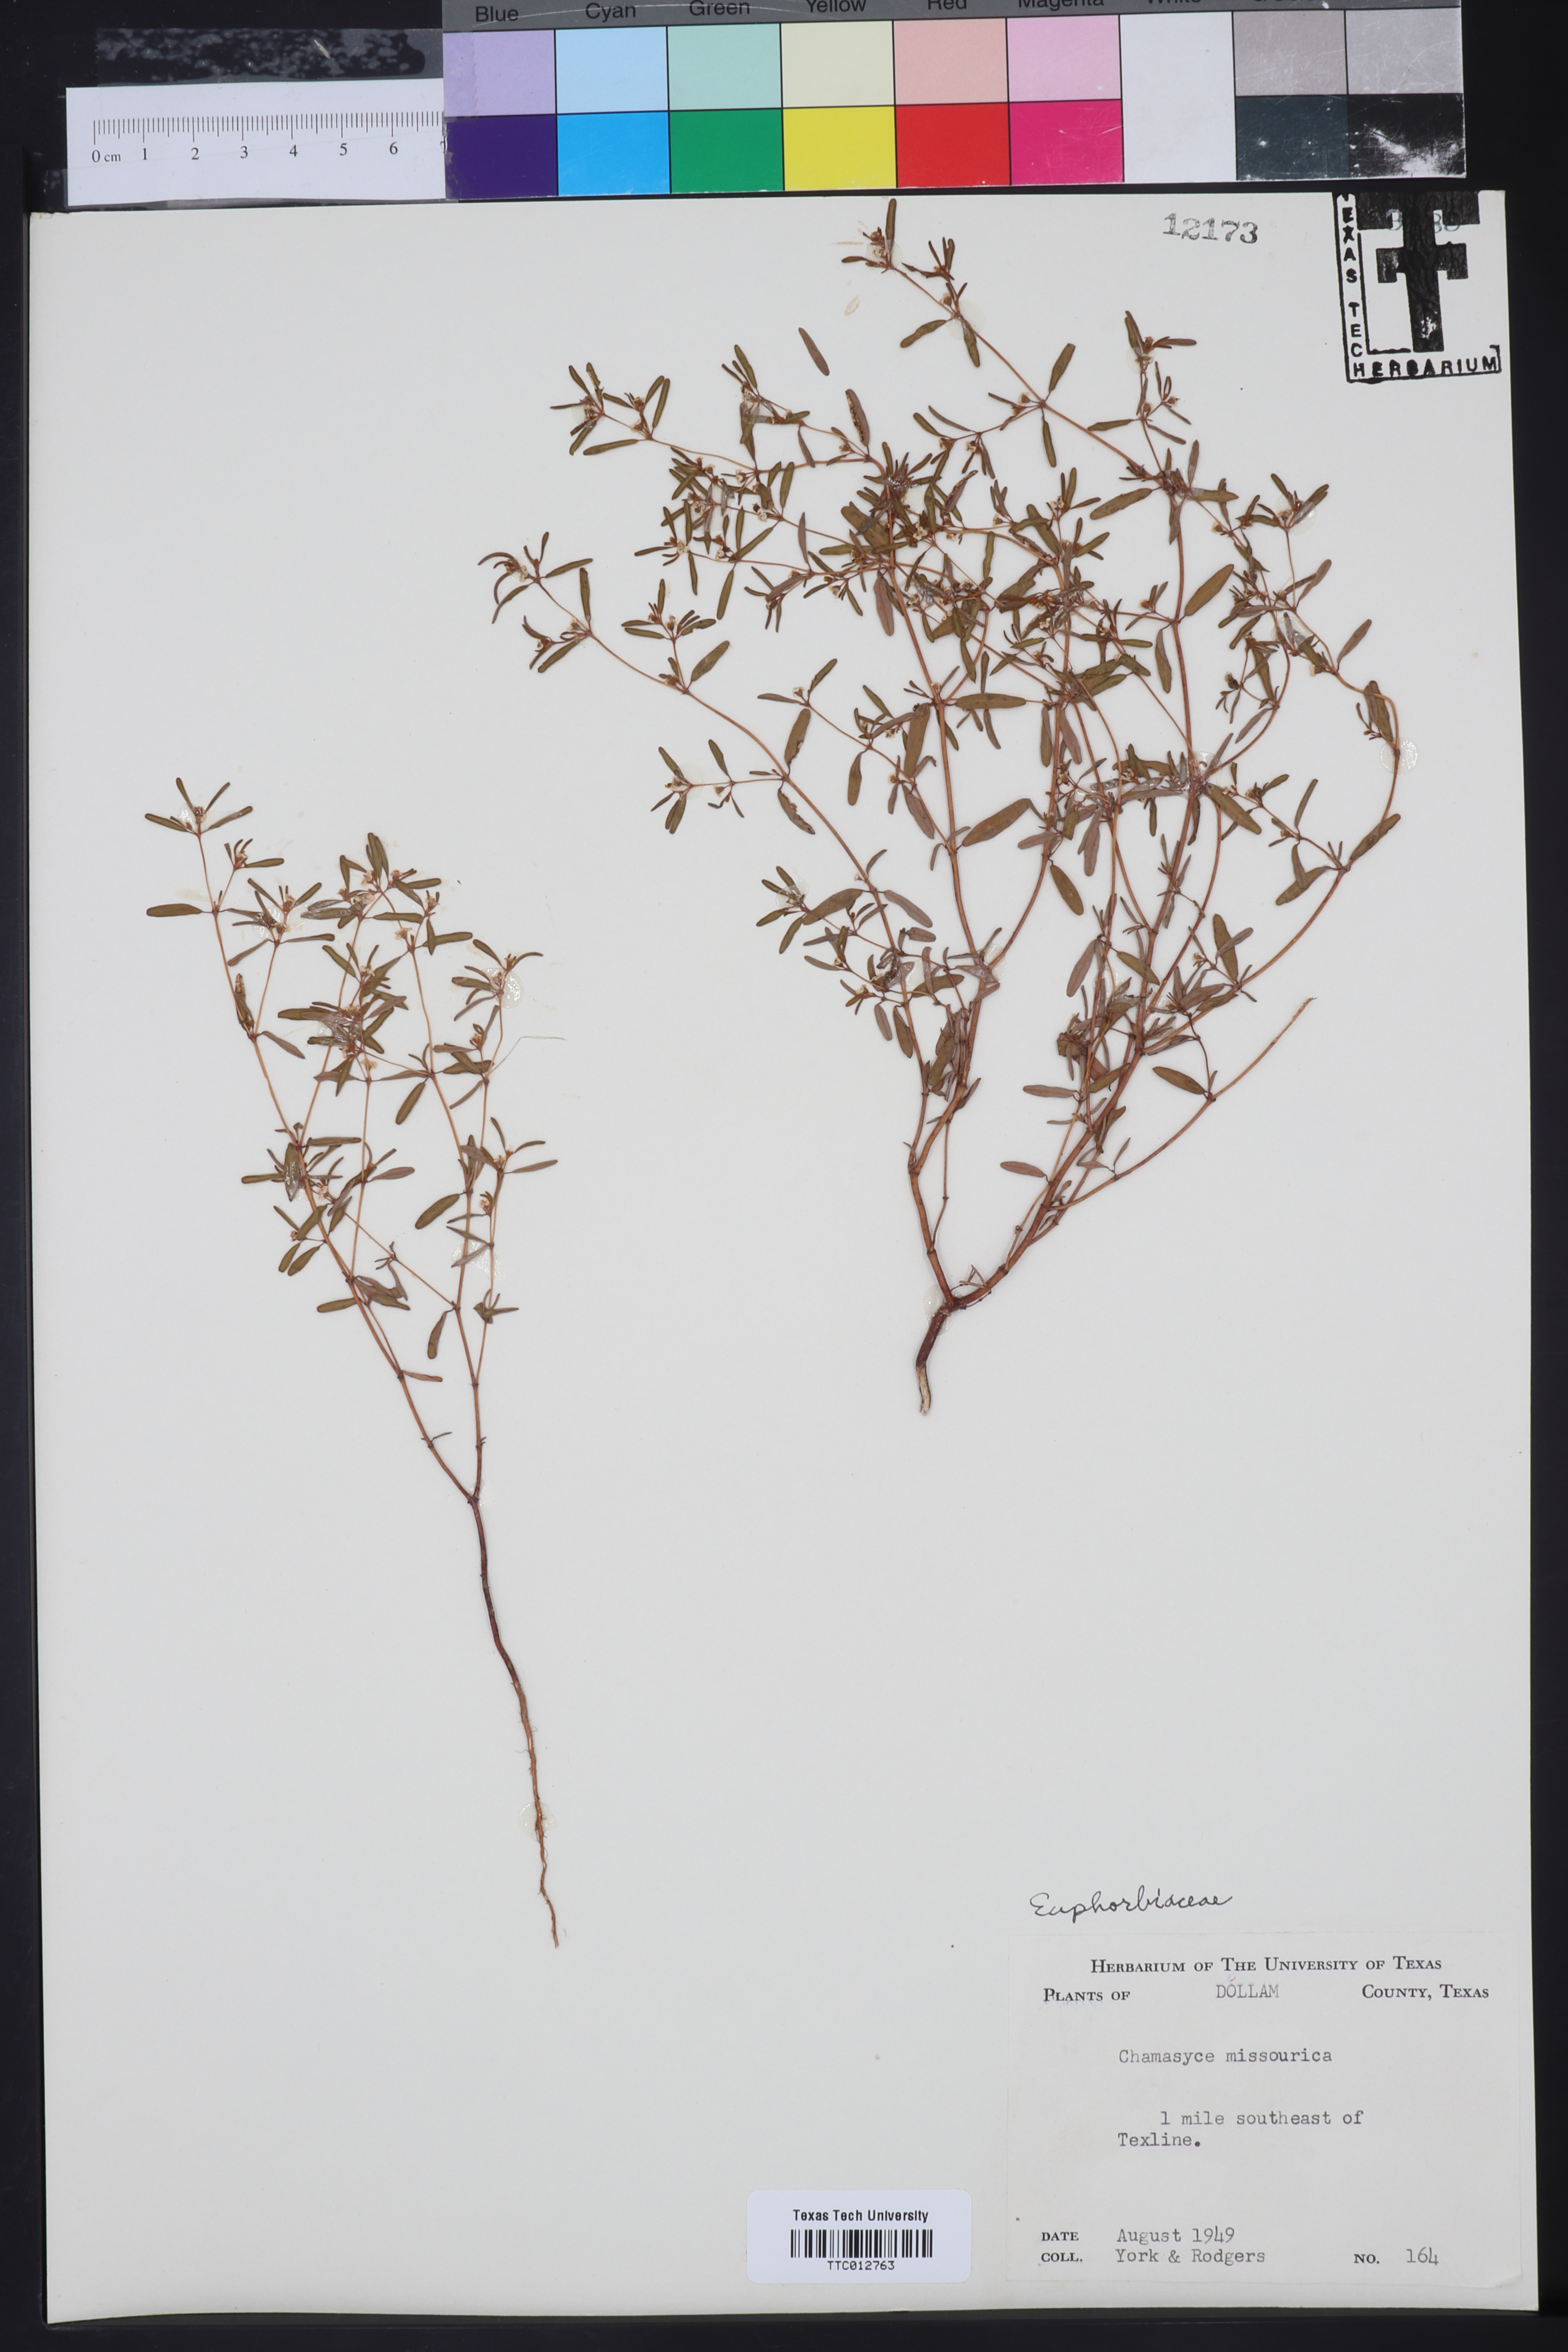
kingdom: Plantae
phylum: Tracheophyta
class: Magnoliopsida
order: Malpighiales
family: Euphorbiaceae
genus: Euphorbia
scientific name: Euphorbia missourica
